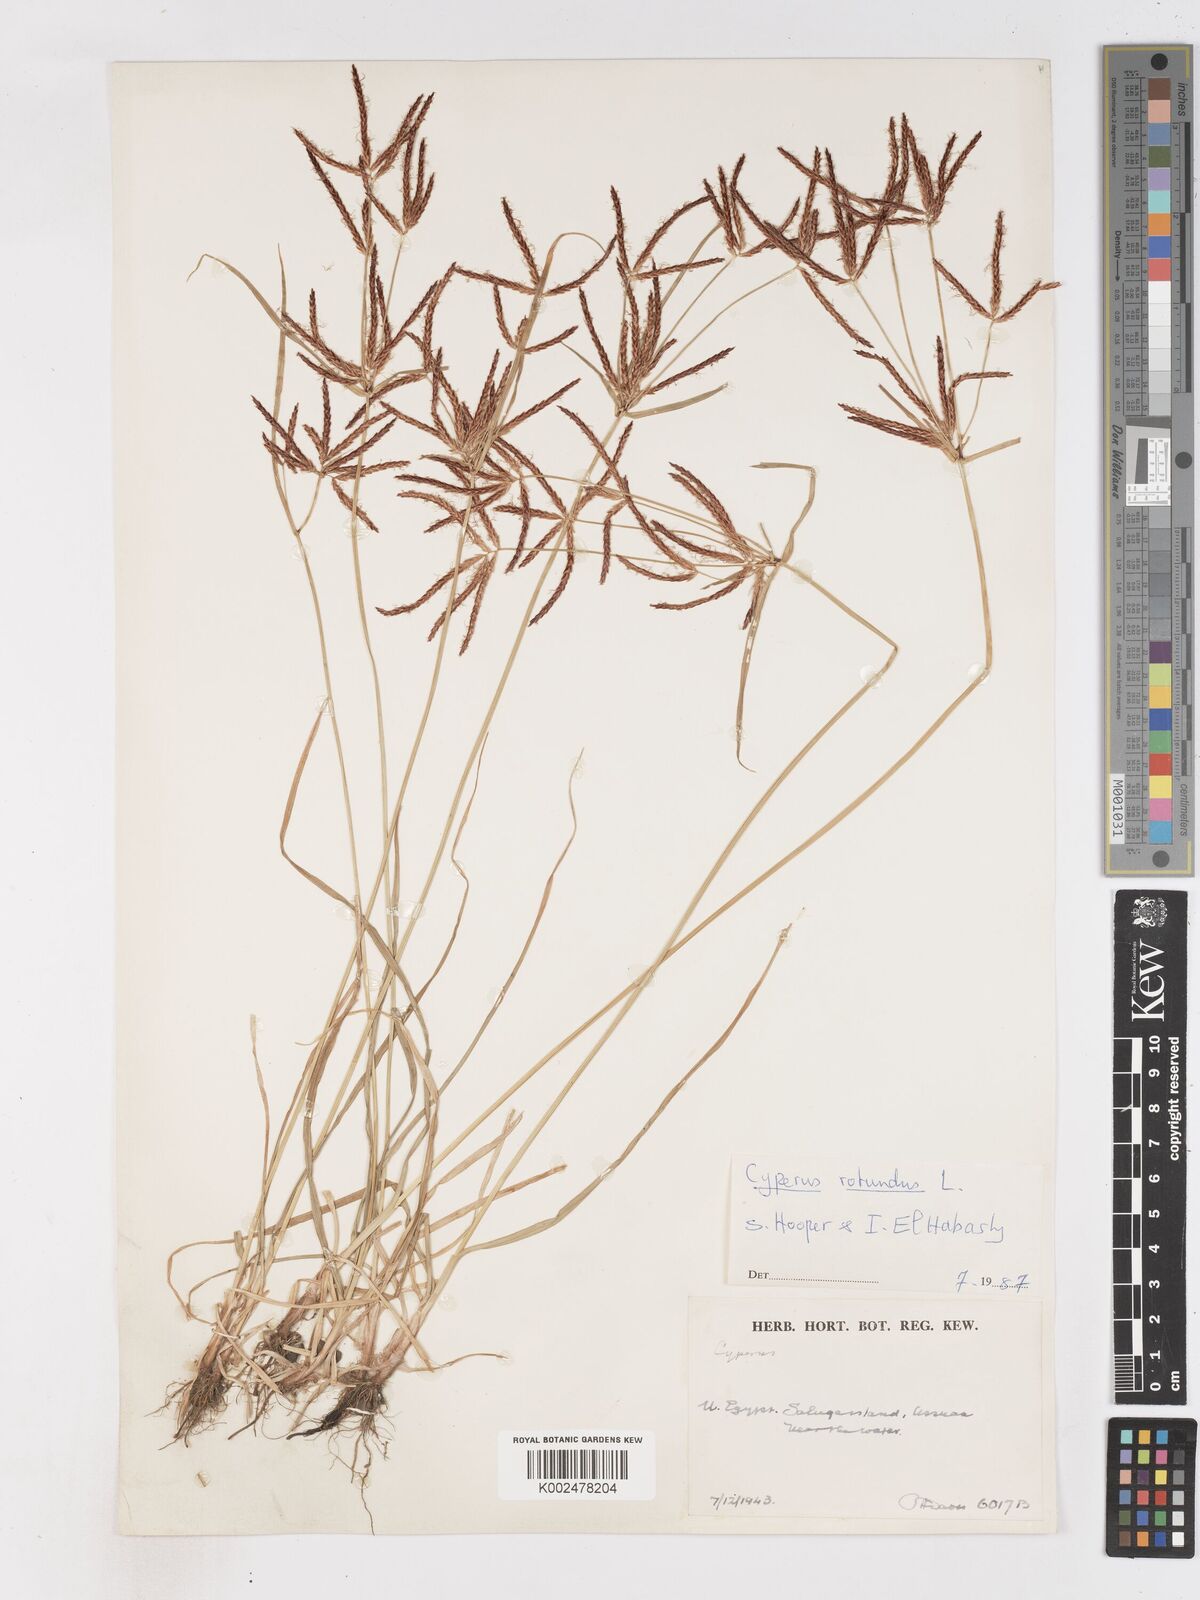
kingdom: Plantae
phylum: Tracheophyta
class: Liliopsida
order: Poales
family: Cyperaceae
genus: Cyperus
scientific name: Cyperus rotundus
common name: Nutgrass
